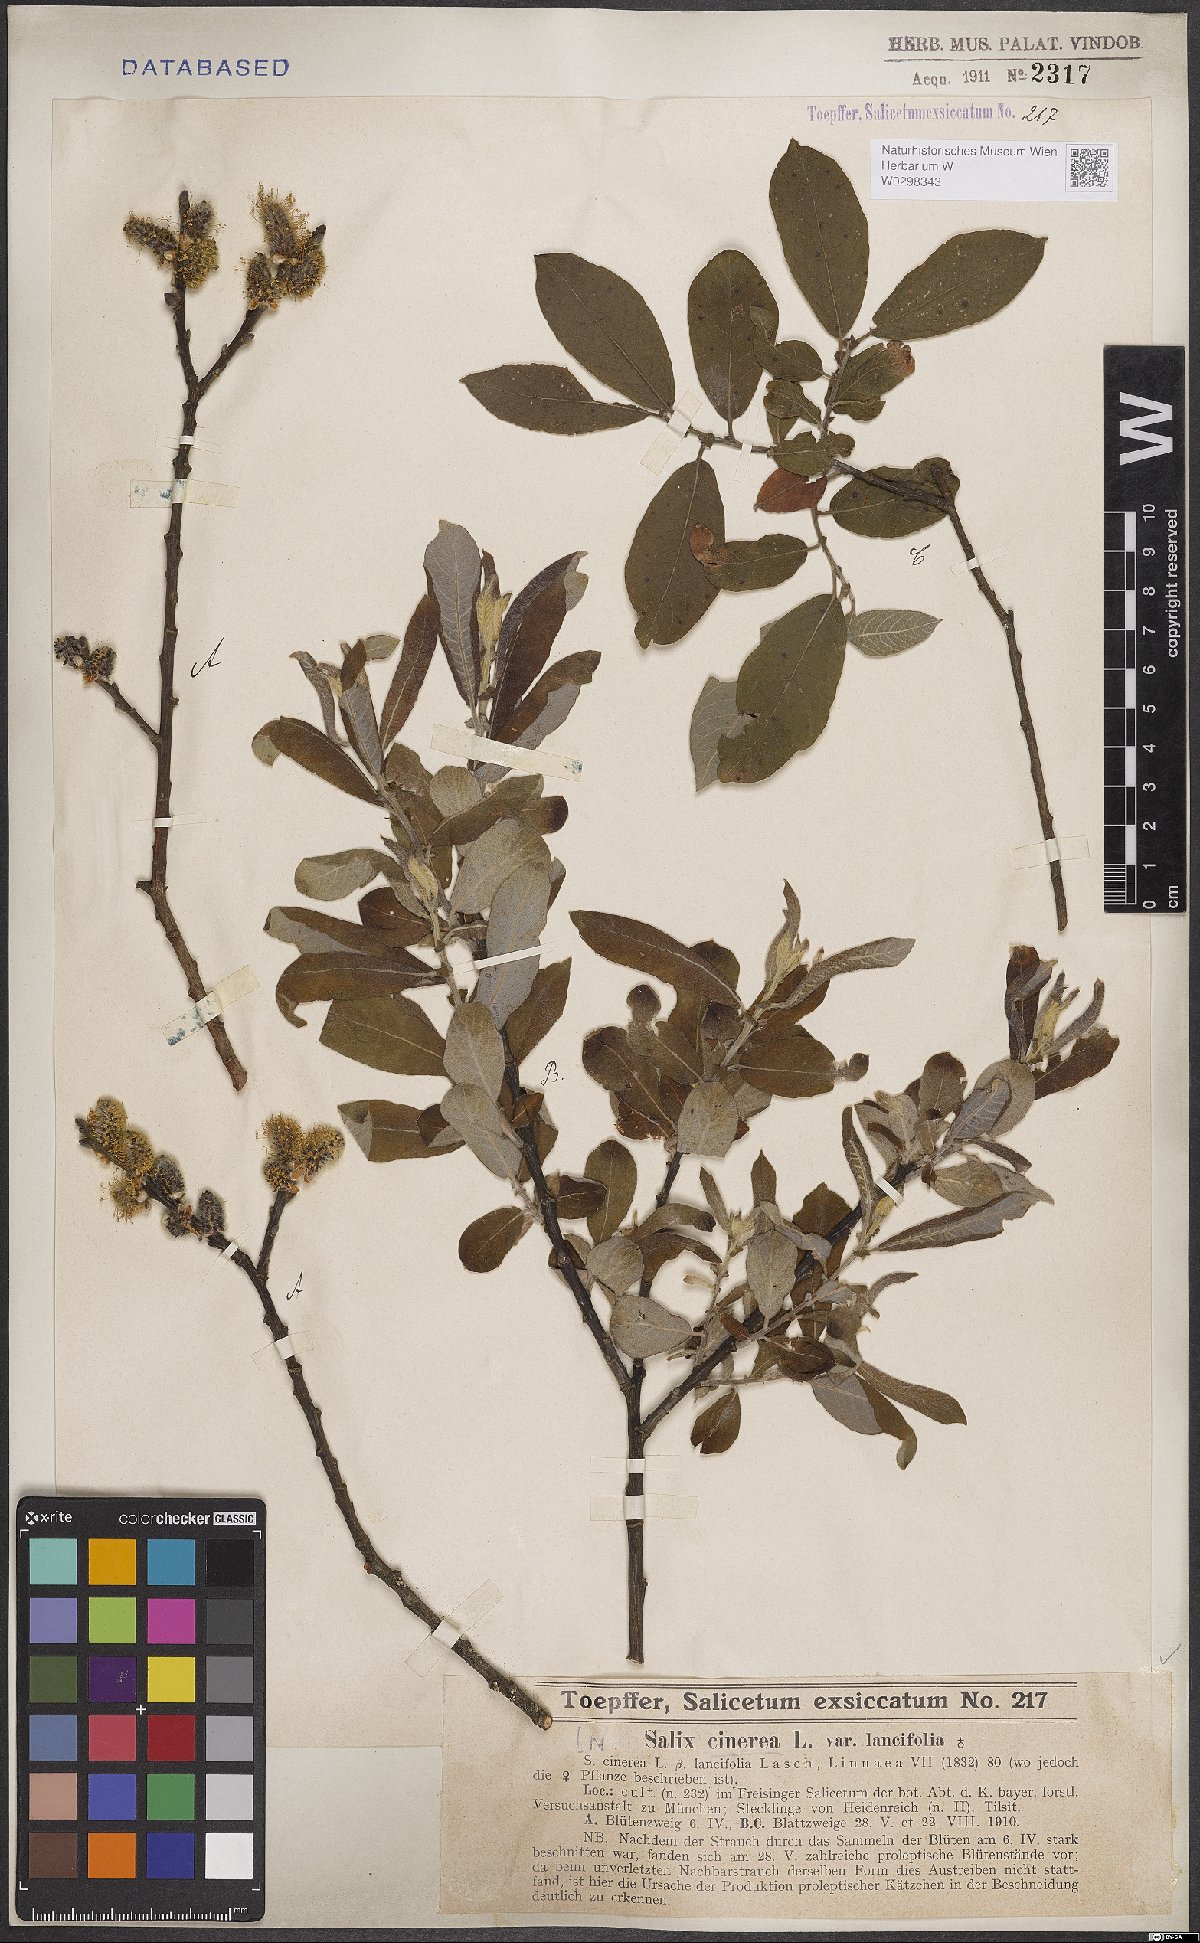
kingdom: Plantae
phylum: Tracheophyta
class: Magnoliopsida
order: Malpighiales
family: Salicaceae
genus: Salix
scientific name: Salix cinerea
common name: Common sallow
